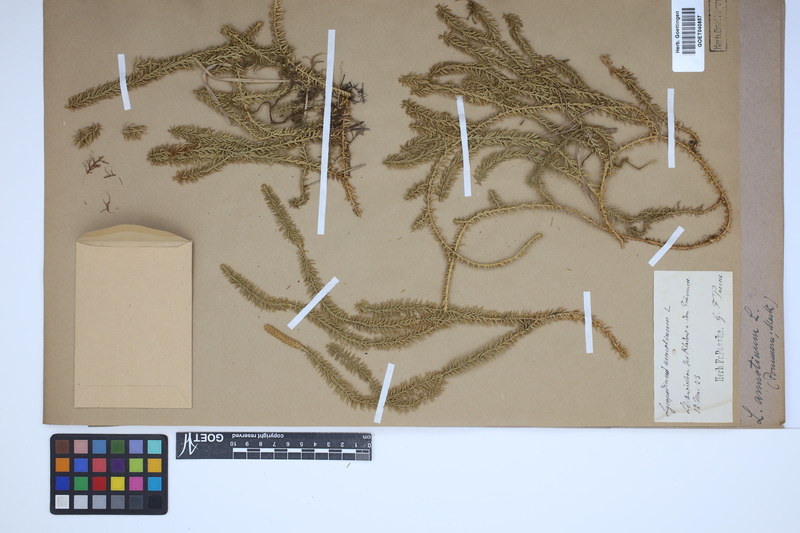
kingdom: Plantae
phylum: Tracheophyta
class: Lycopodiopsida
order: Lycopodiales
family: Lycopodiaceae
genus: Spinulum
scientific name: Spinulum annotinum
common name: Interrupted club-moss
